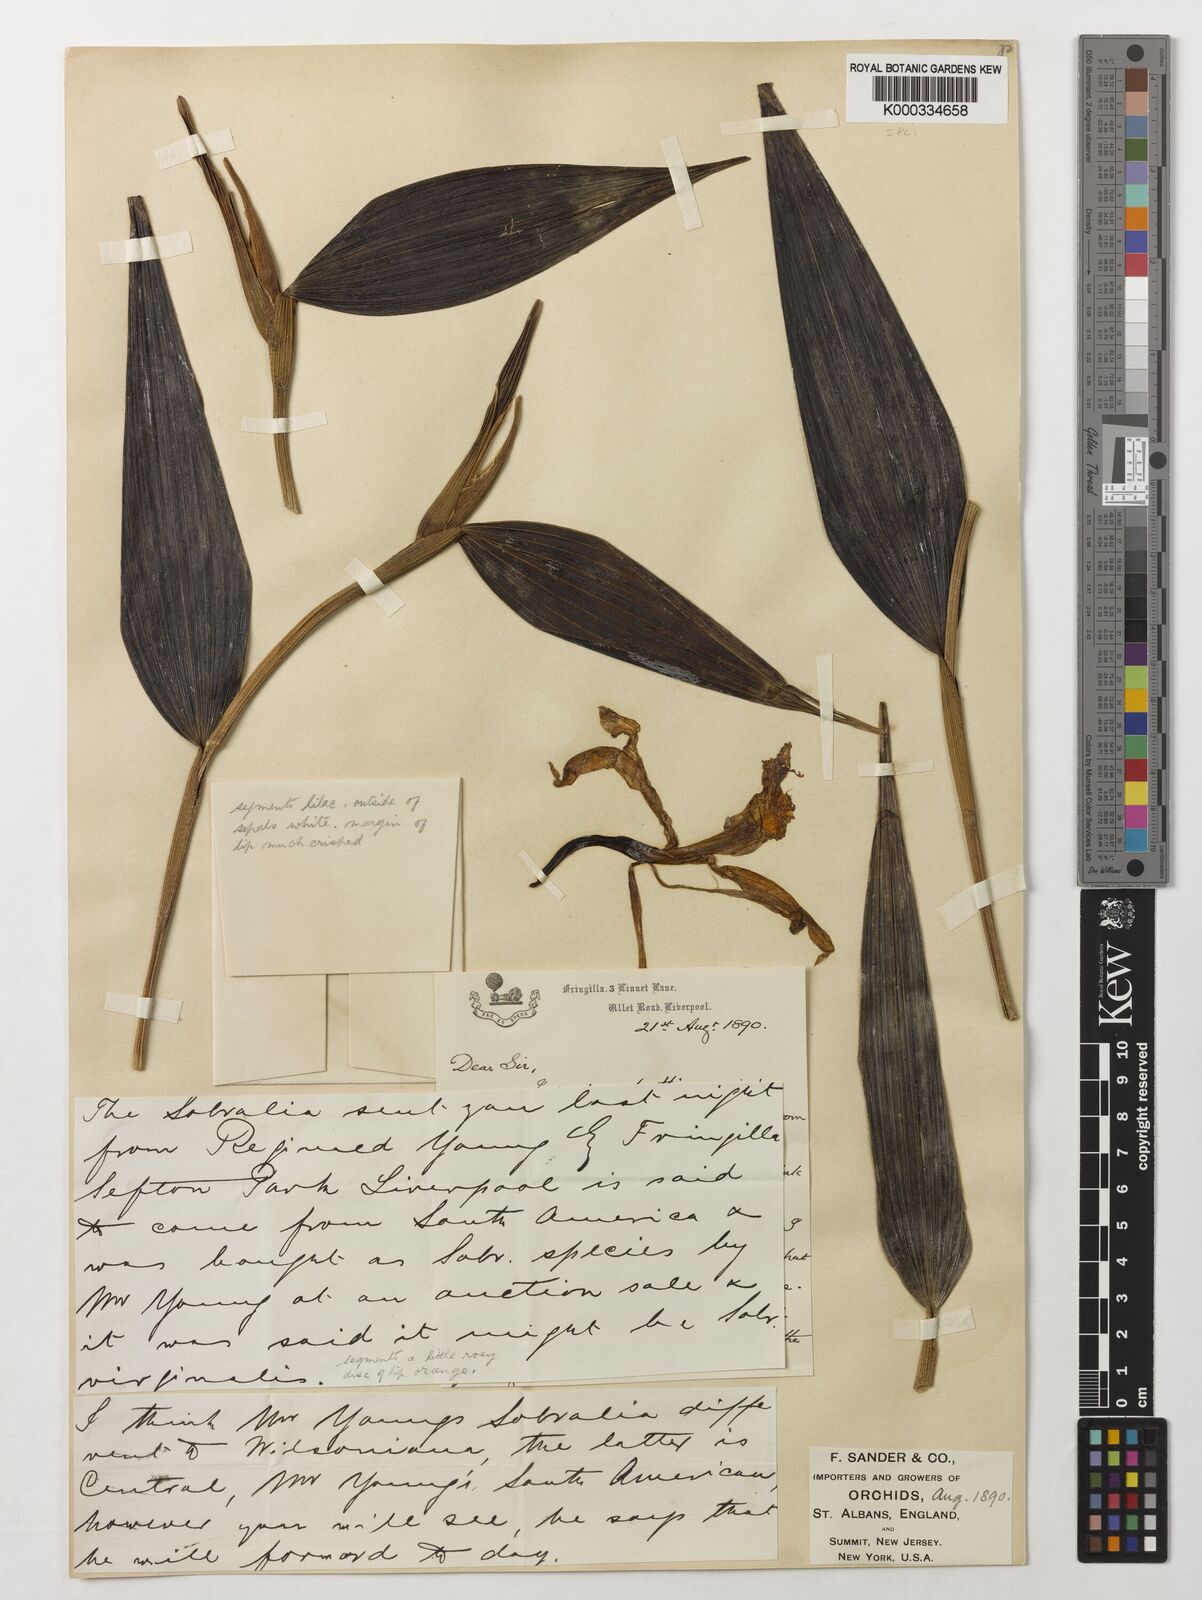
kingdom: Plantae
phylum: Tracheophyta
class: Liliopsida
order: Asparagales
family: Orchidaceae
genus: Sobralia
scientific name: Sobralia wilsoniana
